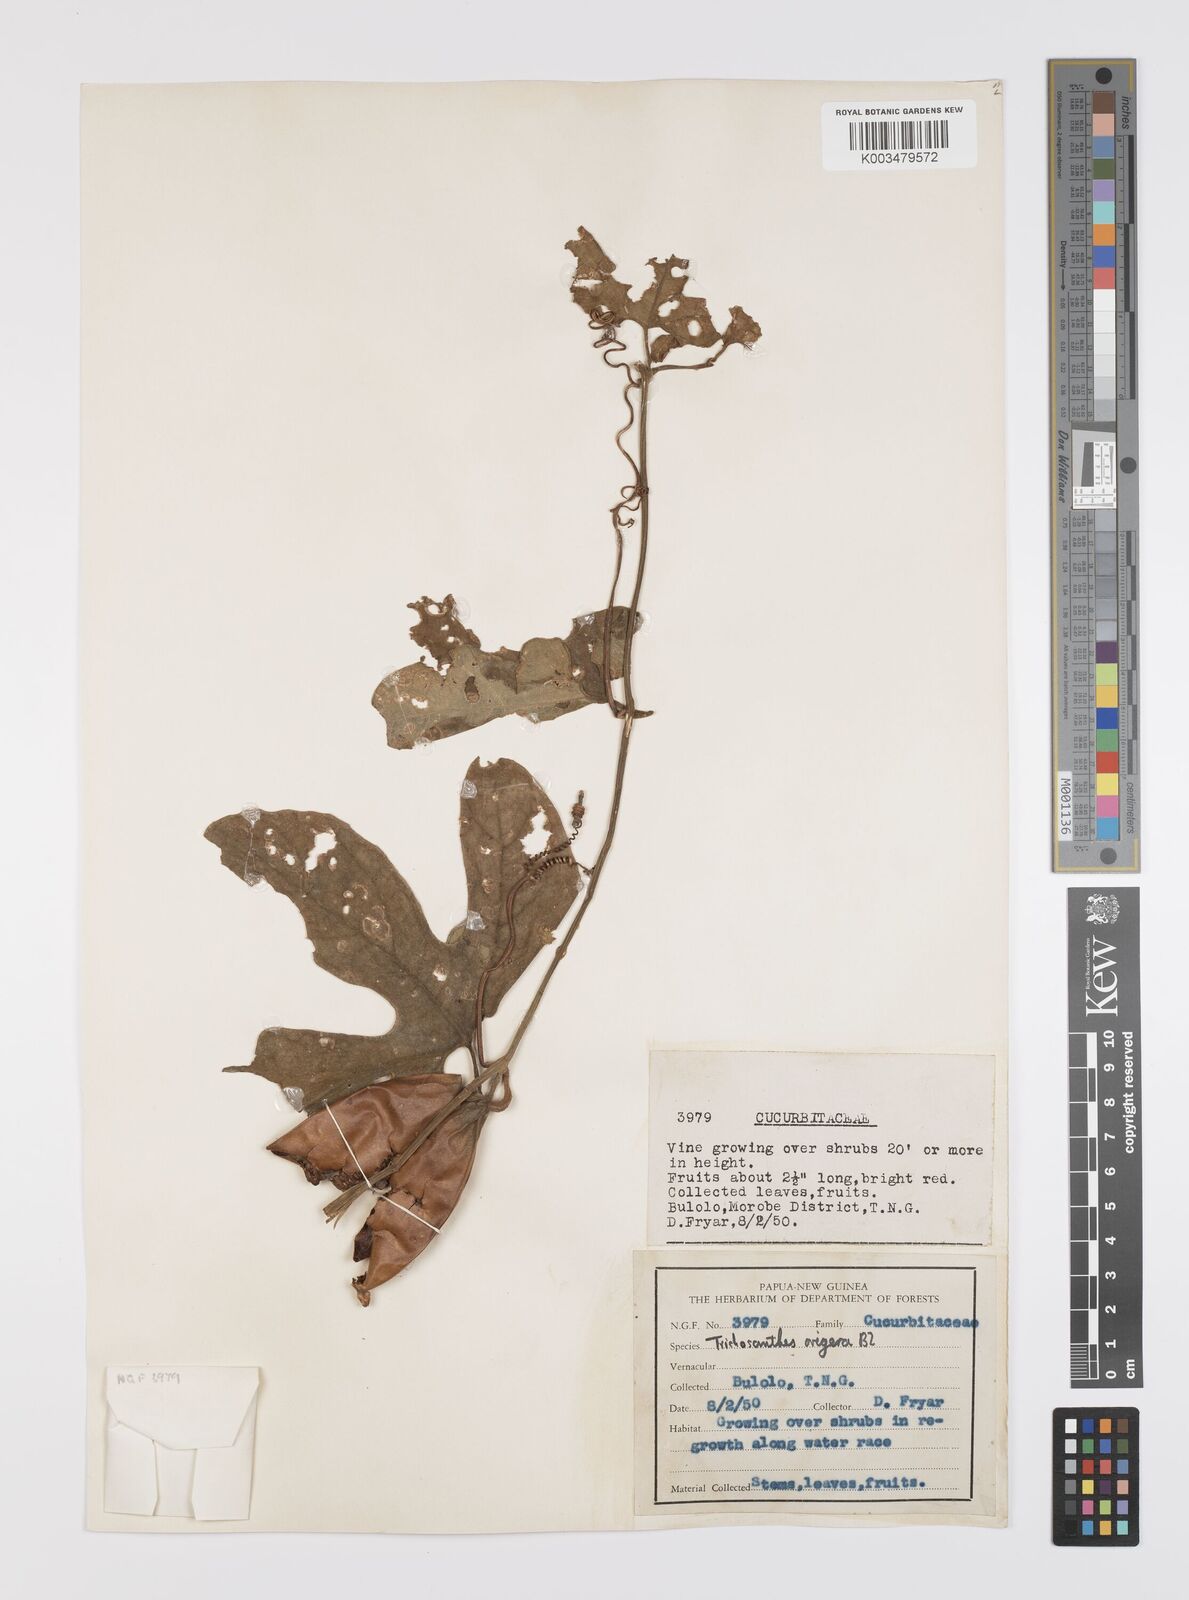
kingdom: Plantae
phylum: Tracheophyta
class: Magnoliopsida
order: Cucurbitales
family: Cucurbitaceae
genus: Trichosanthes
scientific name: Trichosanthes ovigera
